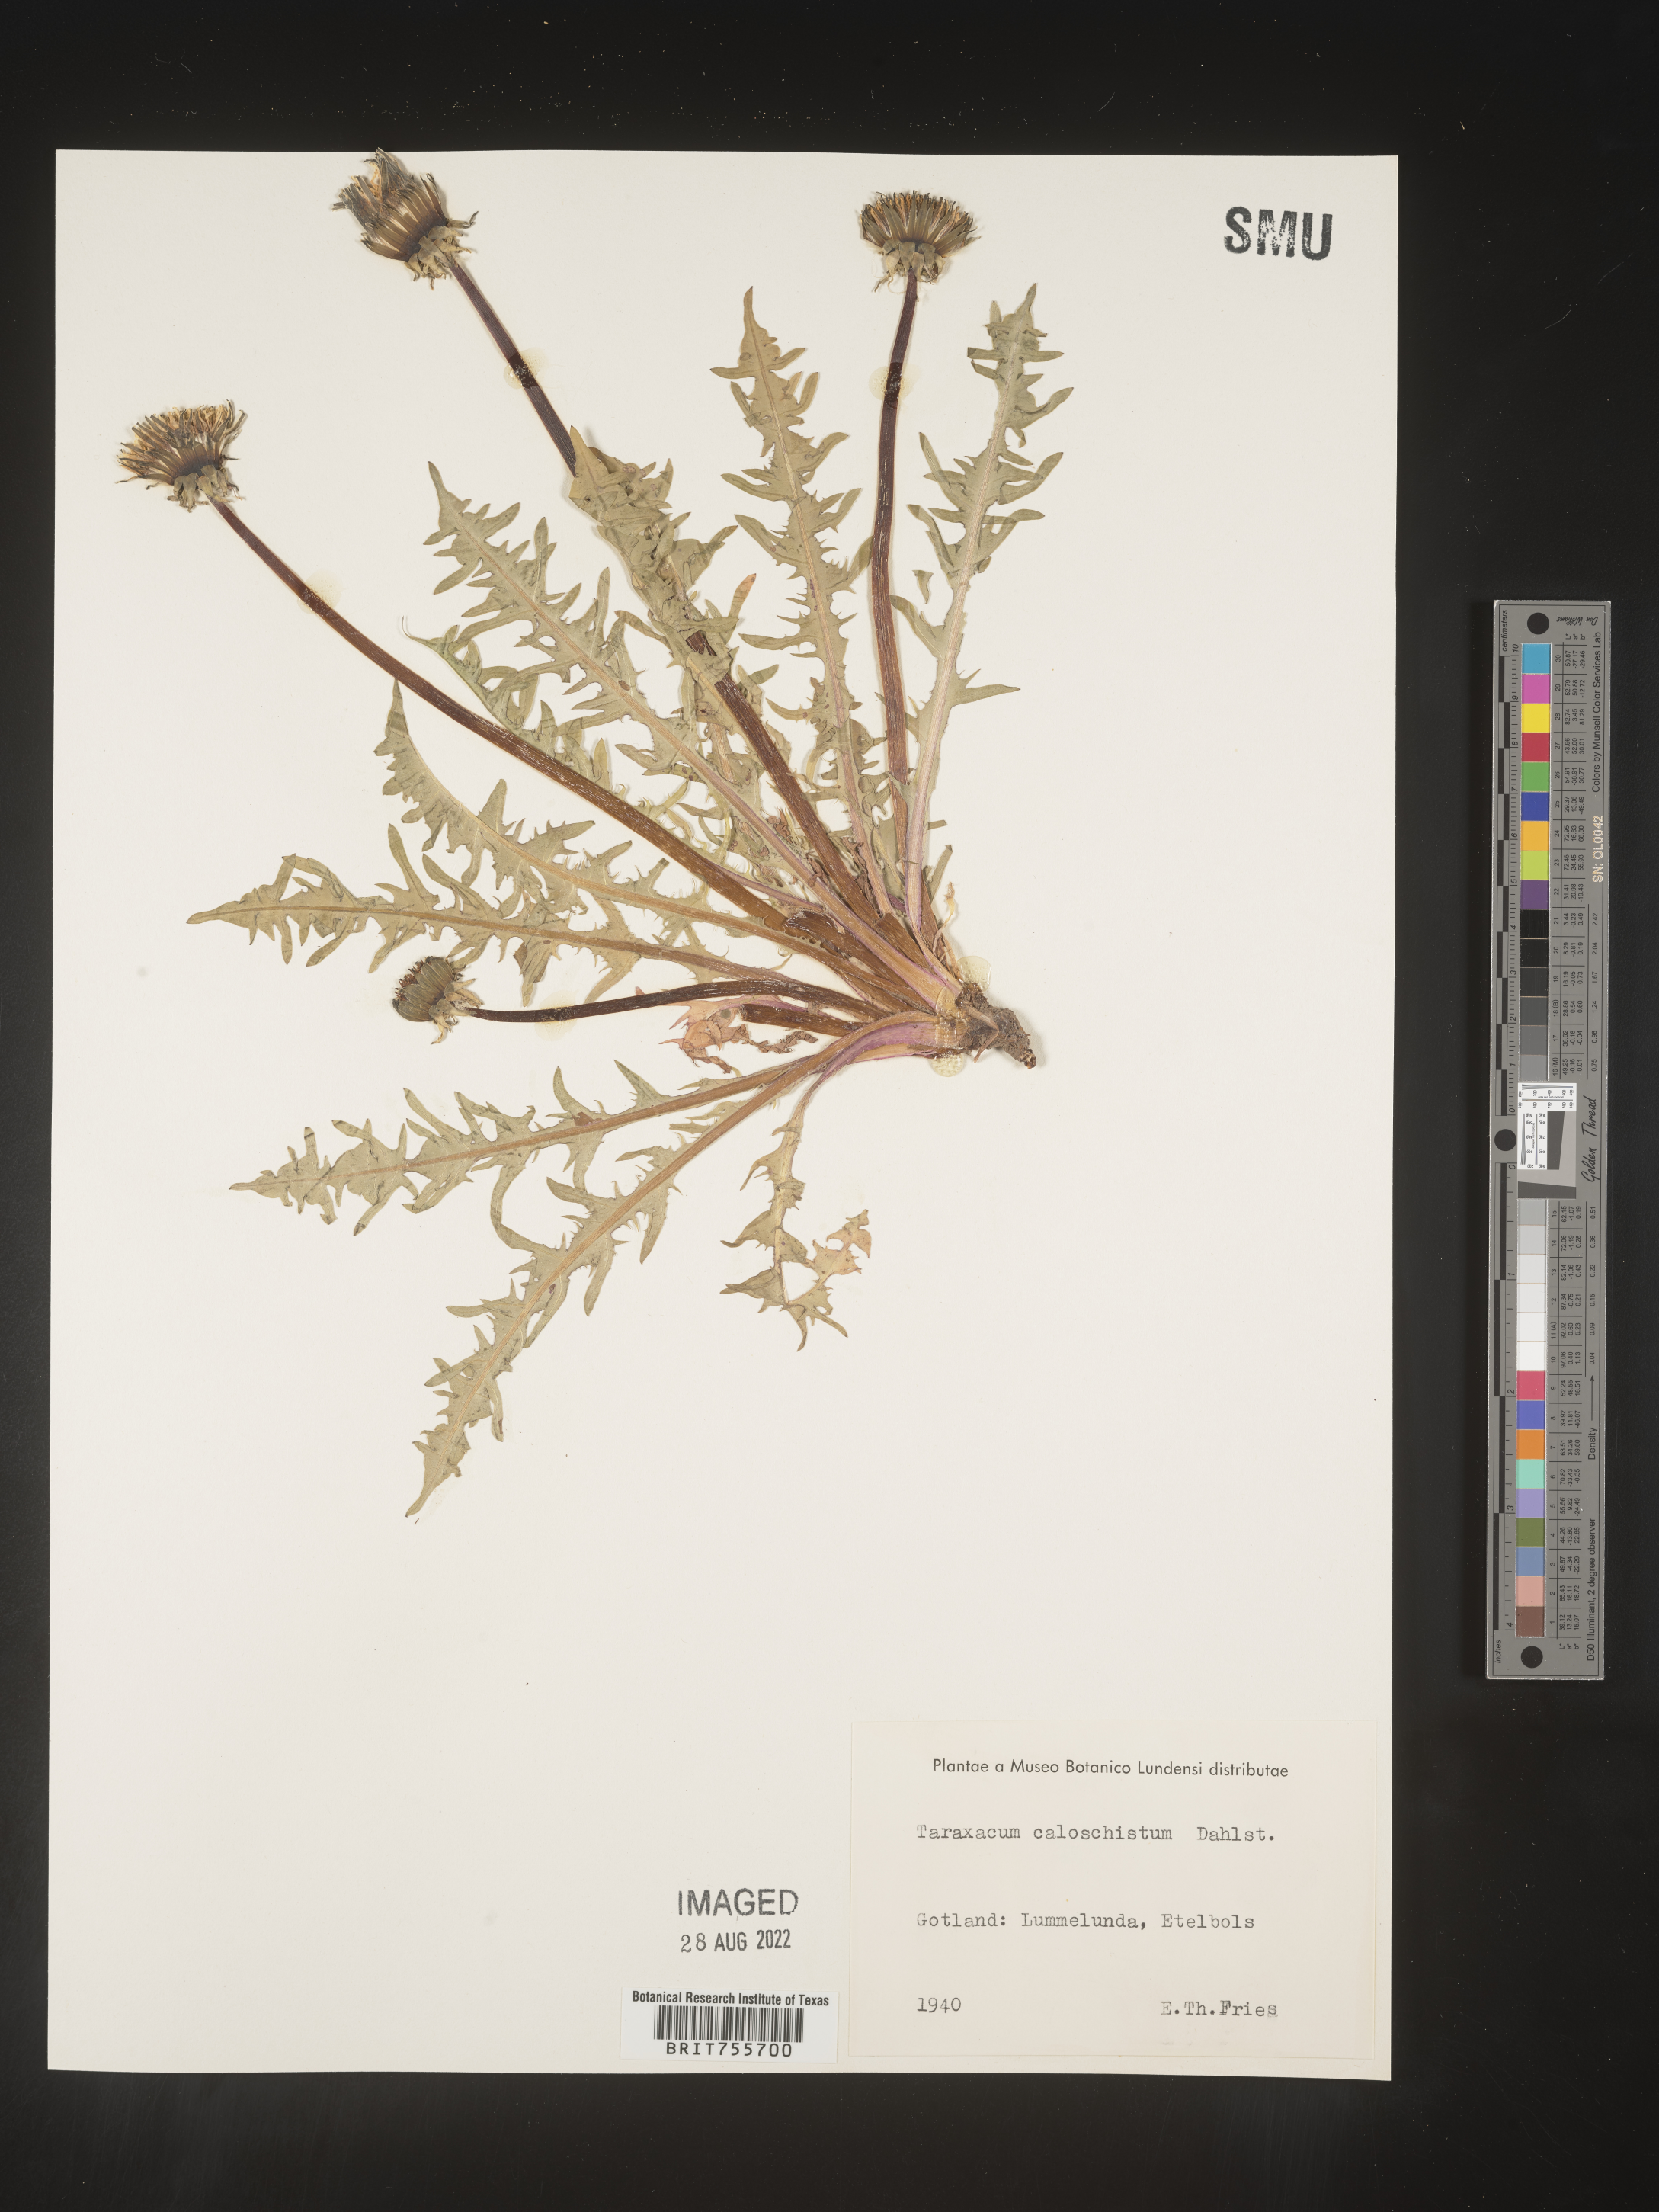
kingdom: Plantae
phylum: Tracheophyta
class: Magnoliopsida
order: Asterales
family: Asteraceae
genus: Taraxacum
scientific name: Taraxacum
